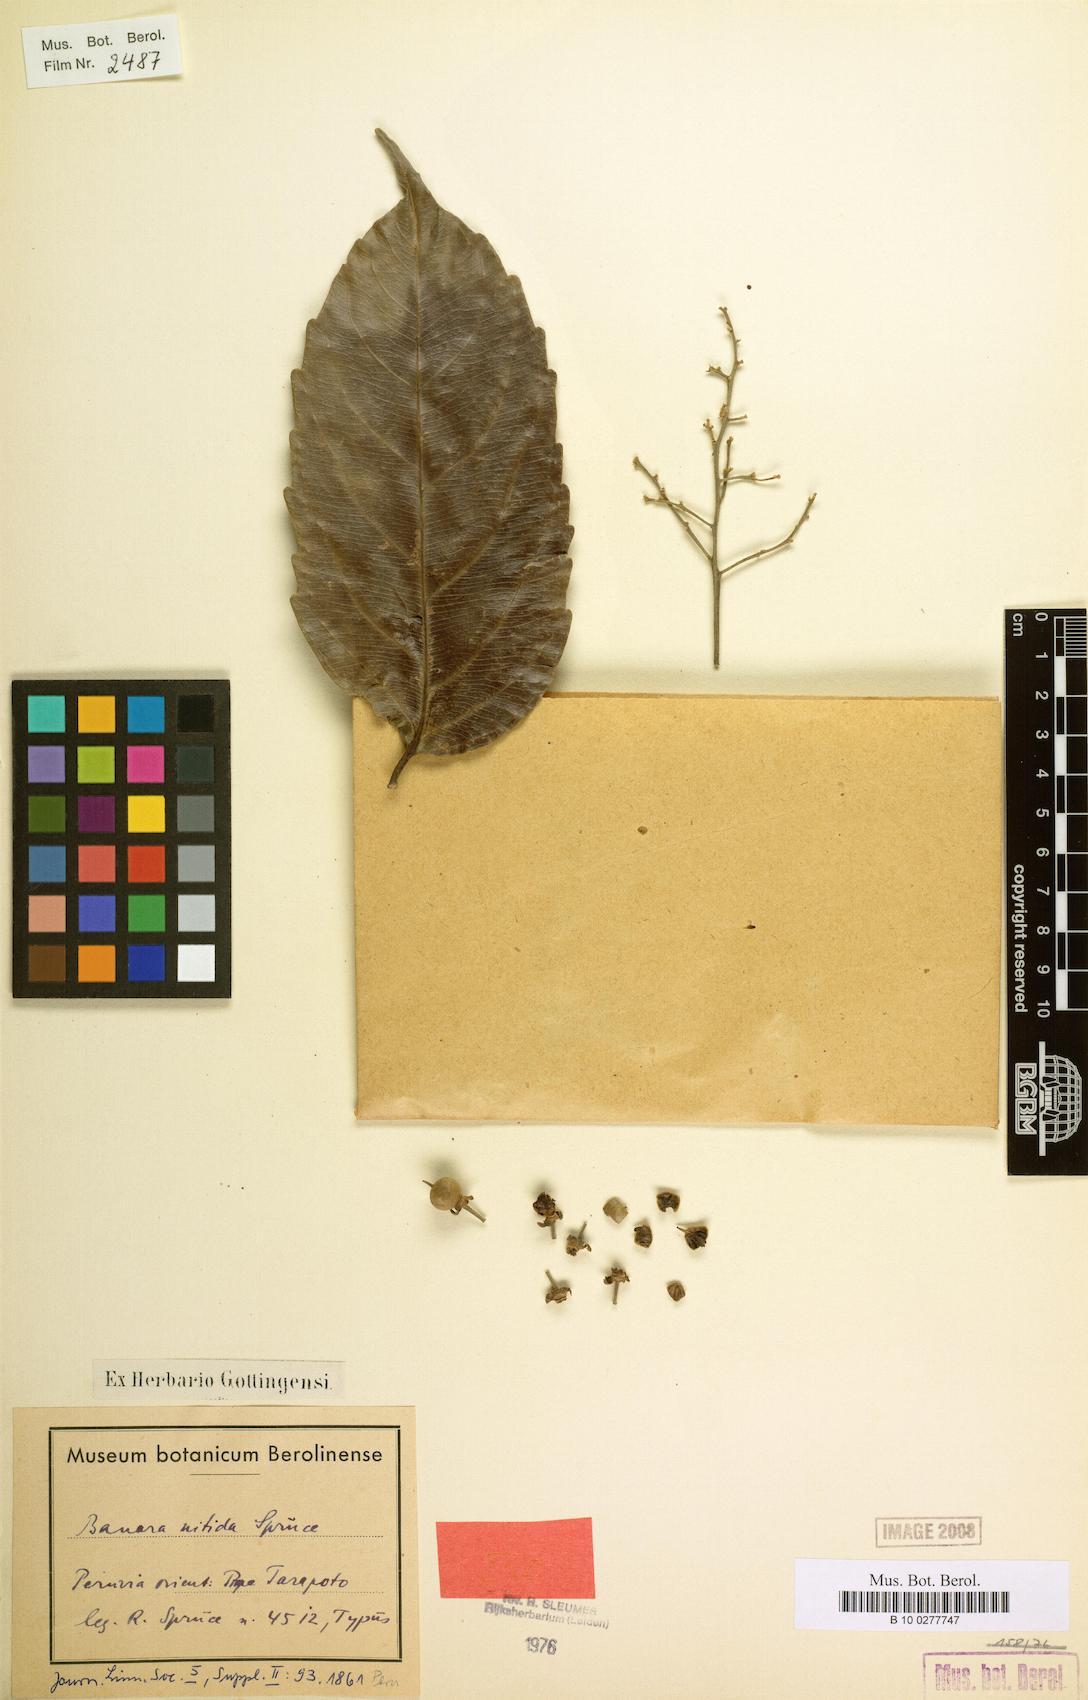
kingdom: Plantae
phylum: Tracheophyta
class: Magnoliopsida
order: Malpighiales
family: Salicaceae
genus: Banara
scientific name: Banara nitida
